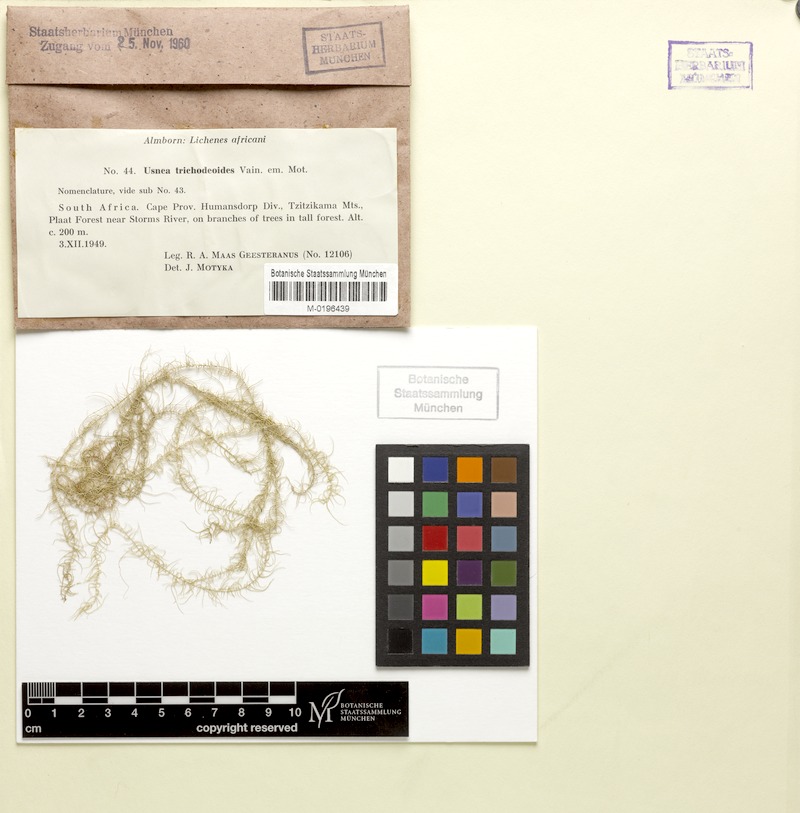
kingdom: Fungi
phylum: Ascomycota
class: Lecanoromycetes
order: Lecanorales
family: Parmeliaceae
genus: Dolichousnea
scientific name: Dolichousnea trichodeoides
